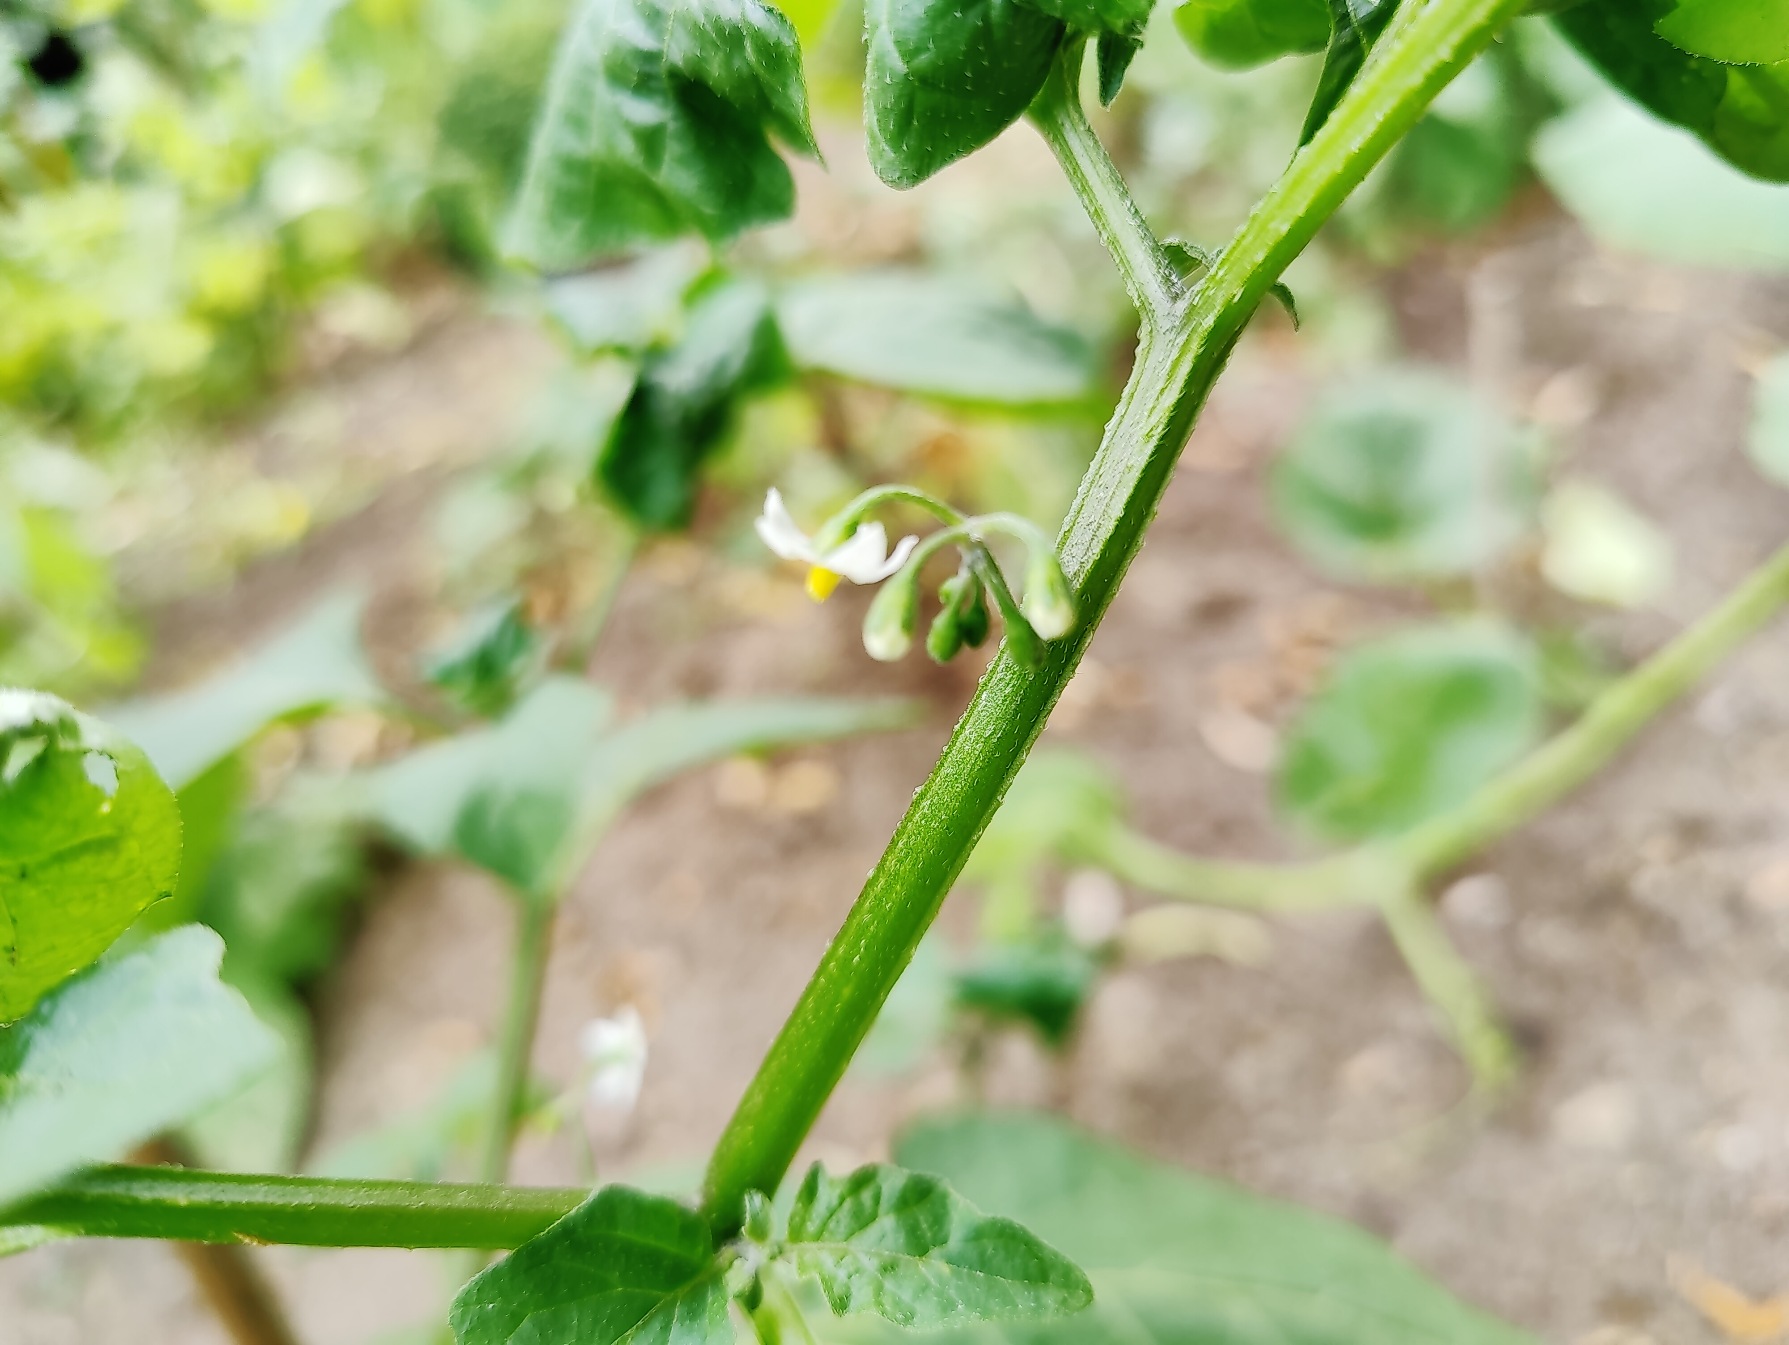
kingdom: Plantae
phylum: Tracheophyta
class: Magnoliopsida
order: Solanales
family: Solanaceae
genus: Solanum
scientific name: Solanum nigrum
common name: Sort natskygge
